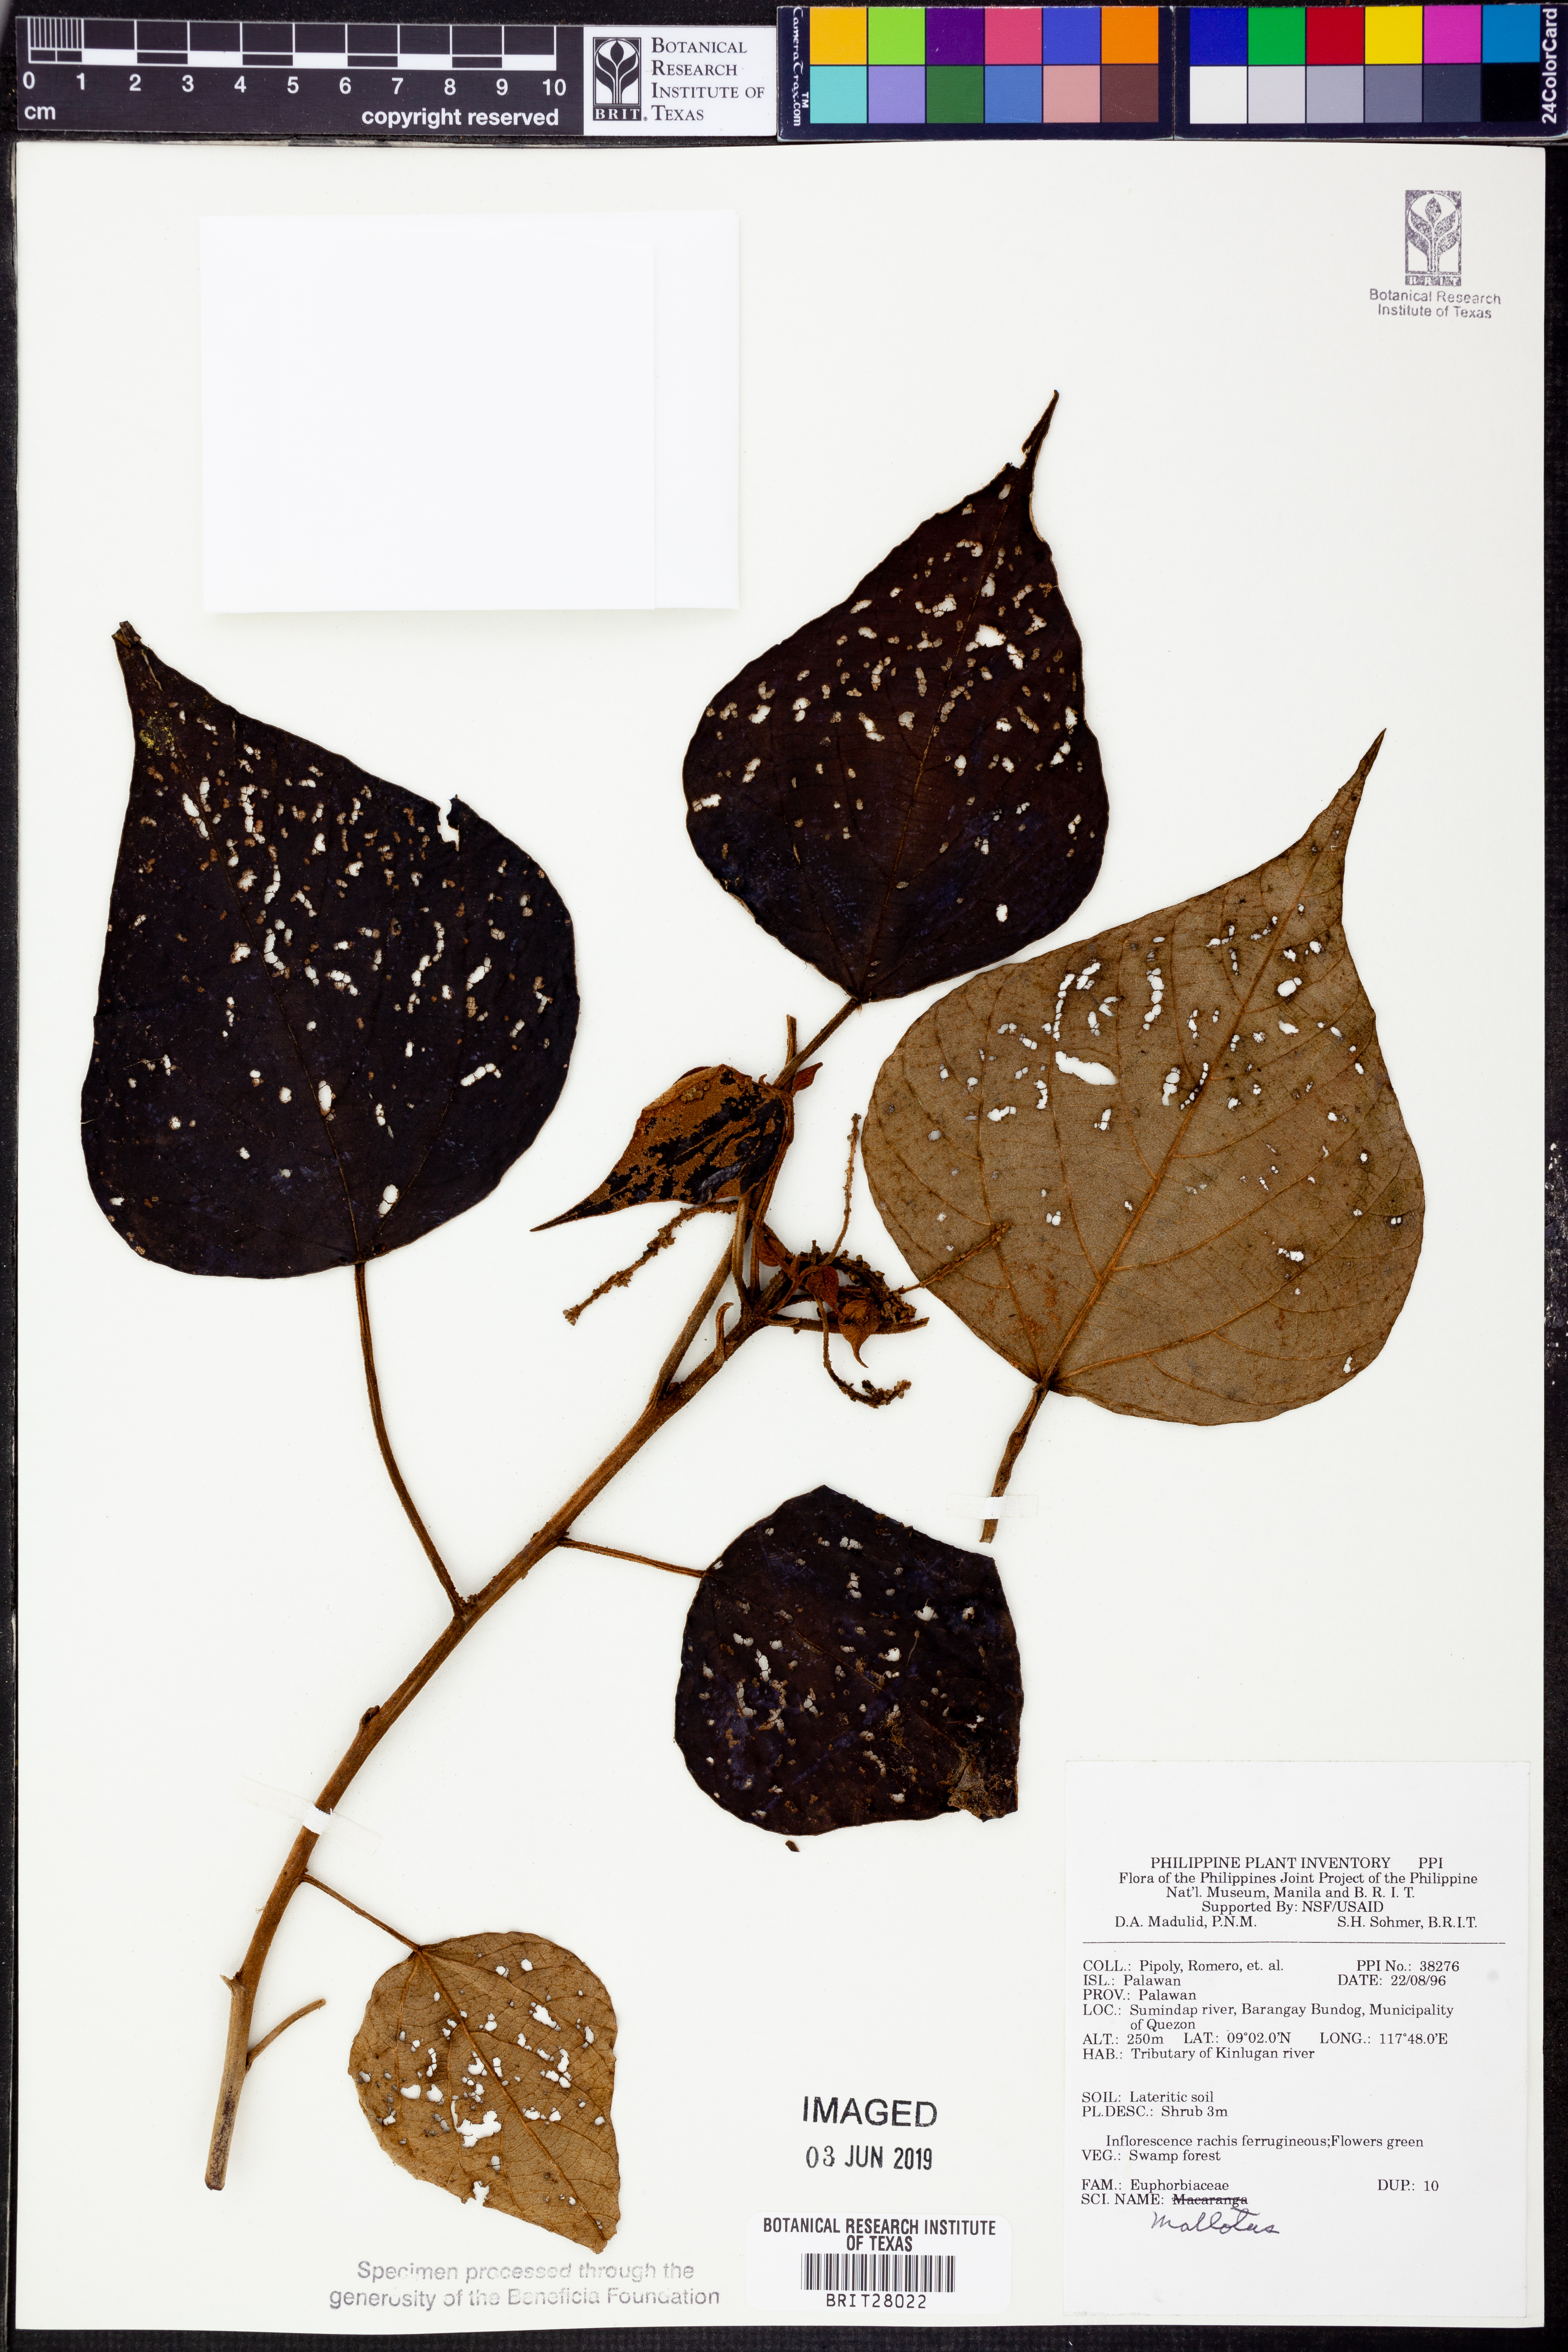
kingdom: Plantae
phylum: Tracheophyta
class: Magnoliopsida
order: Malpighiales
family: Euphorbiaceae
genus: Mallotus
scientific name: Mallotus
